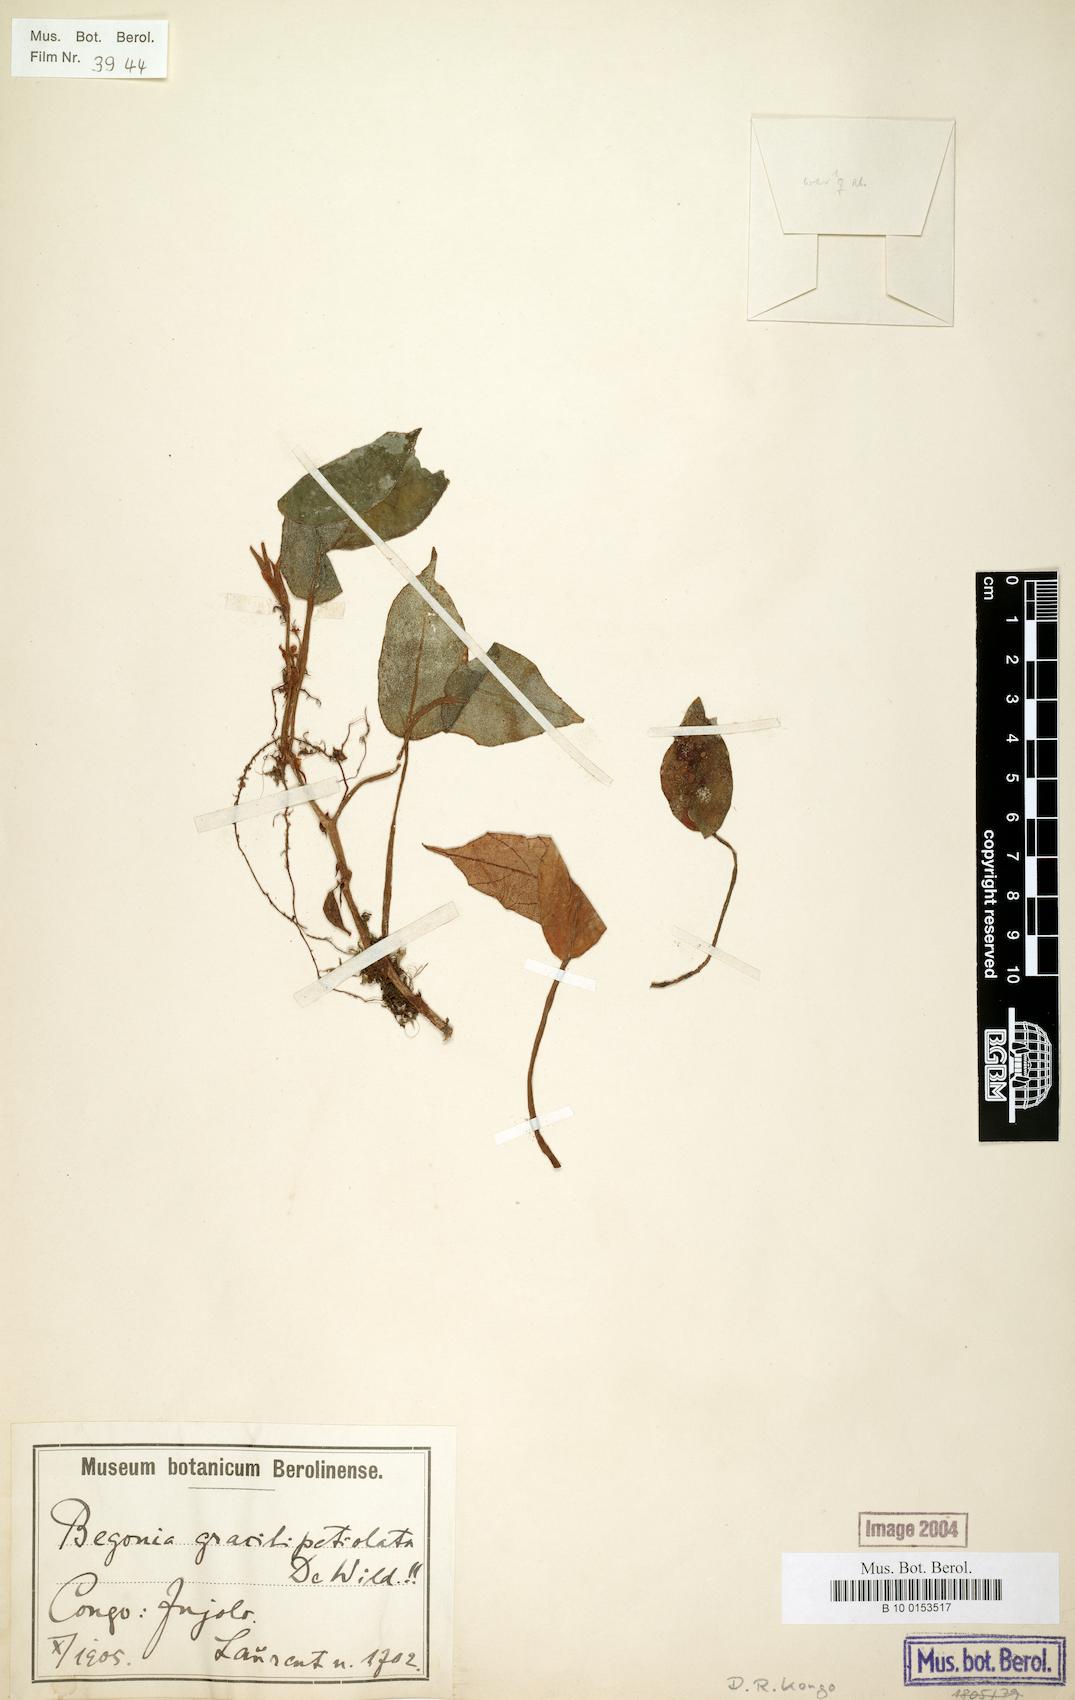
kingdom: Plantae
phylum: Tracheophyta
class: Magnoliopsida
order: Cucurbitales
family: Begoniaceae
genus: Begonia
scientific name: Begonia longipetiolata
